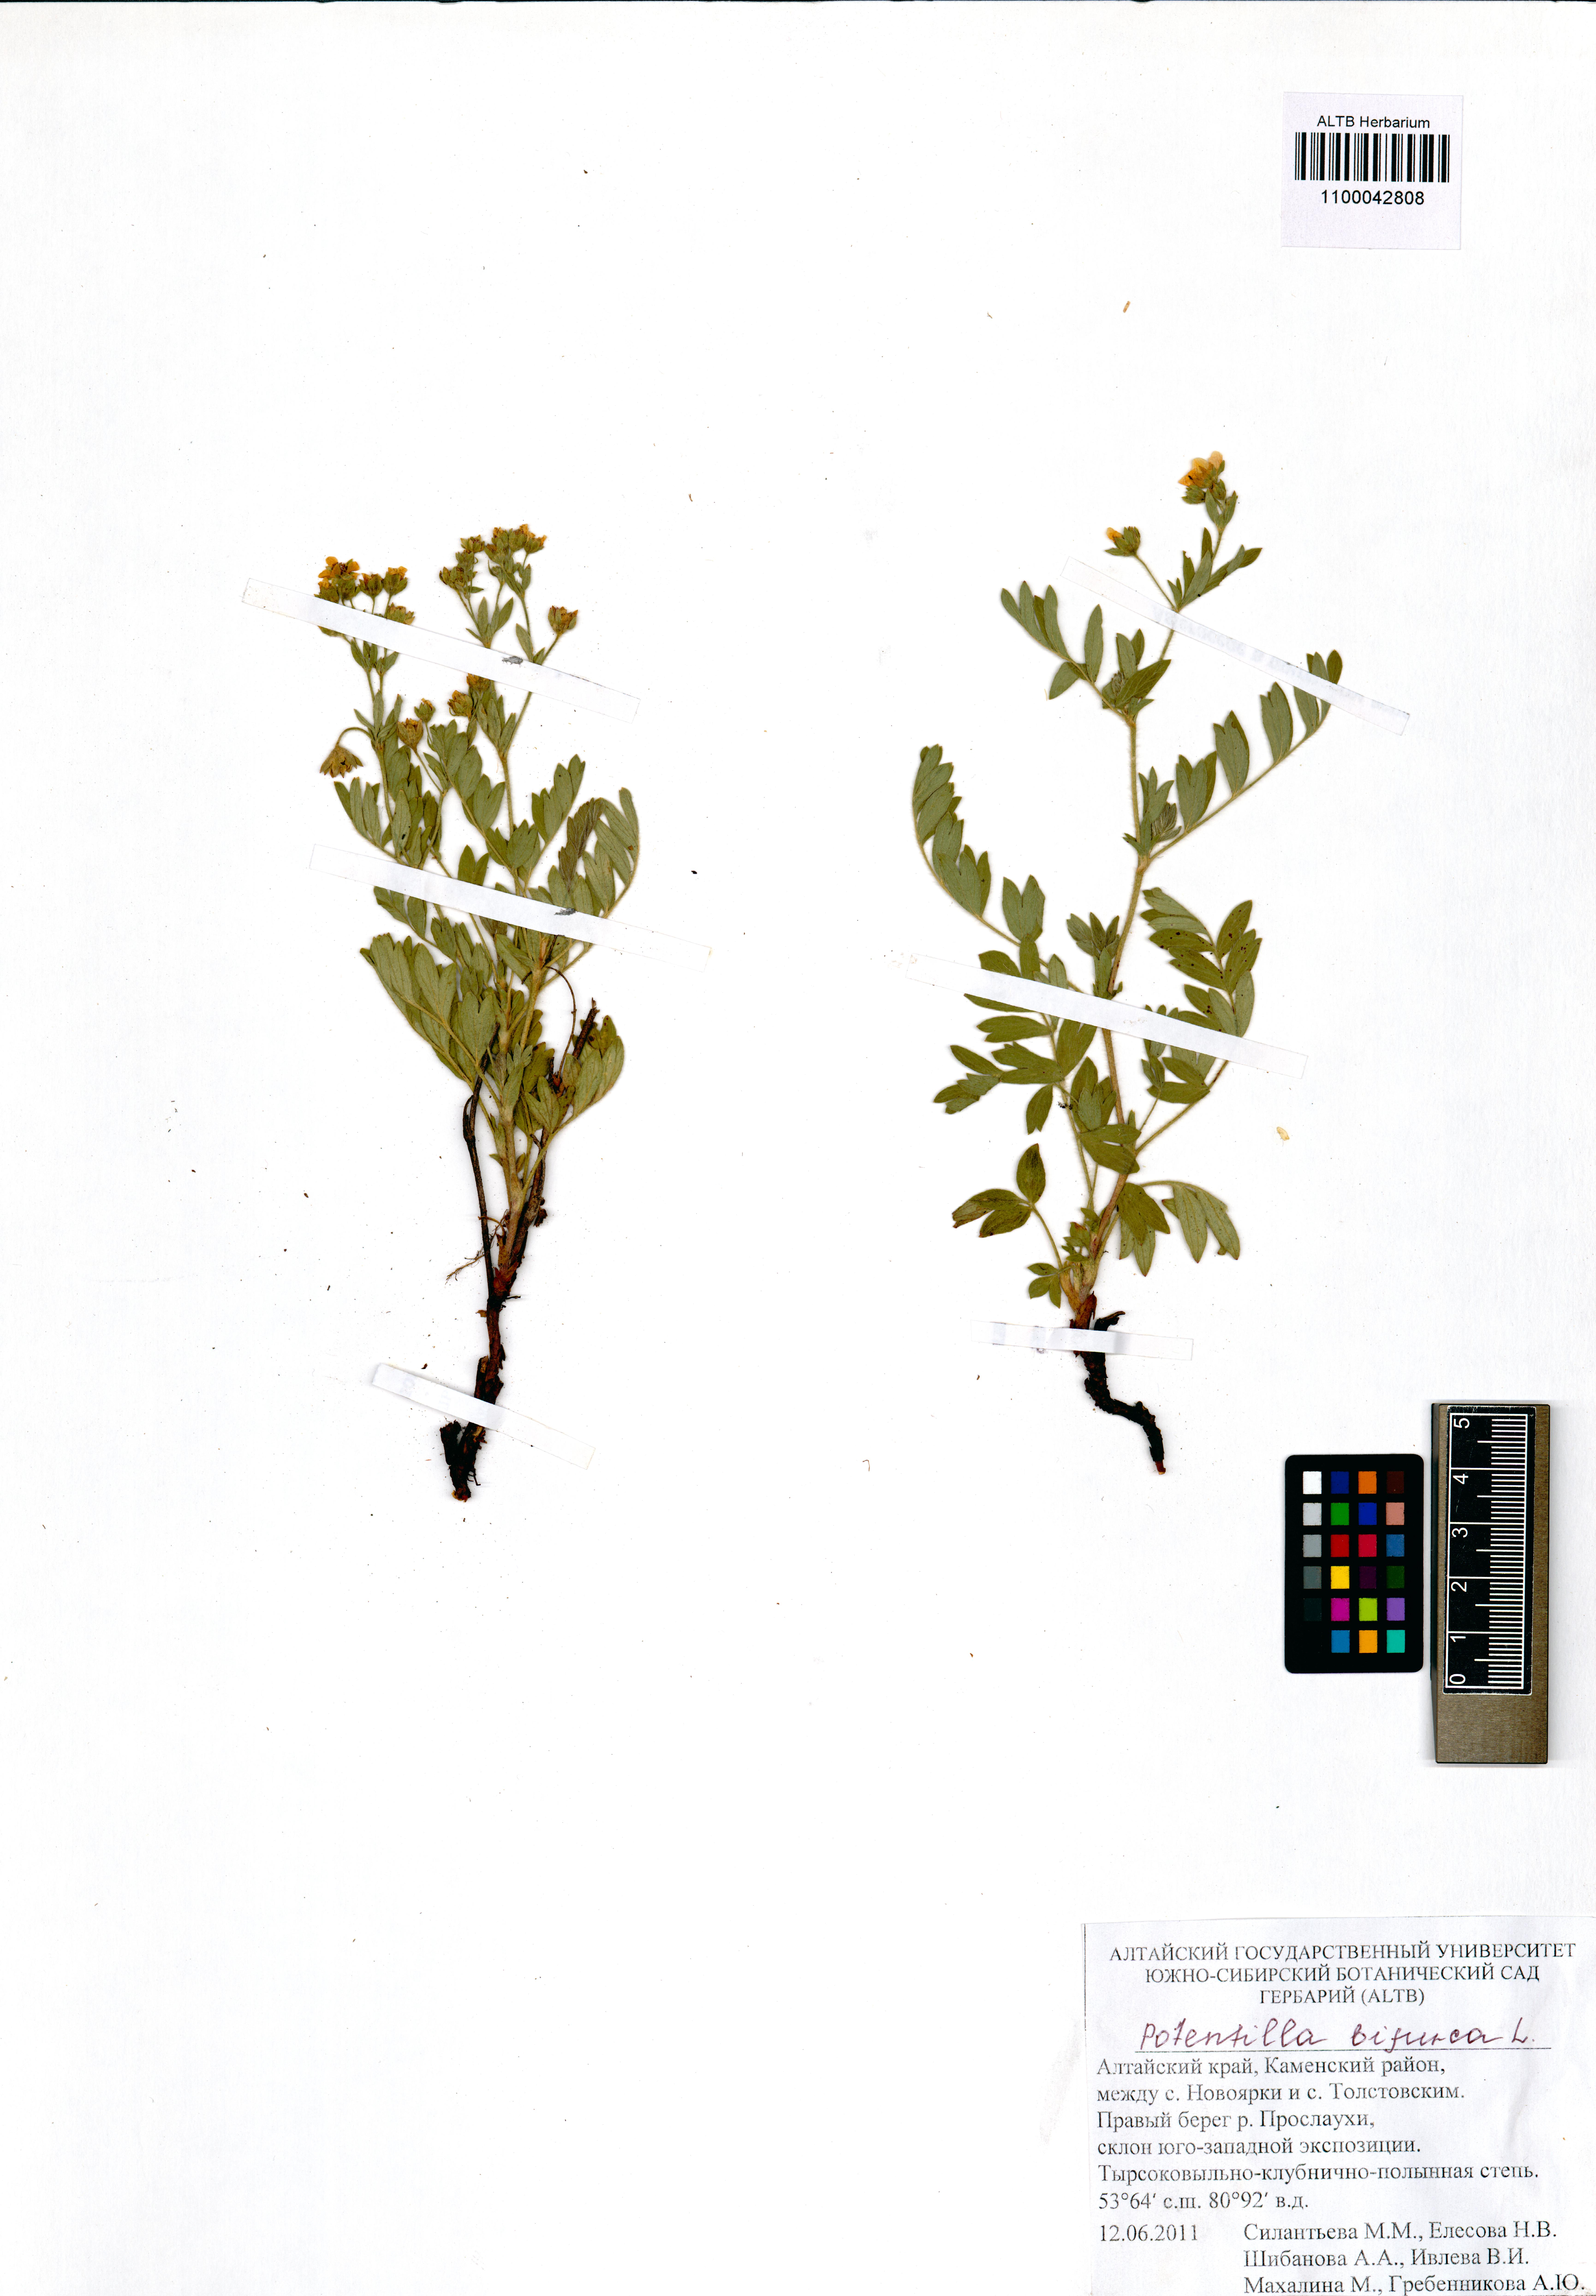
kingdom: Plantae
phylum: Tracheophyta
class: Magnoliopsida
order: Rosales
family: Rosaceae
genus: Sibbaldianthe
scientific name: Sibbaldianthe bifurca
